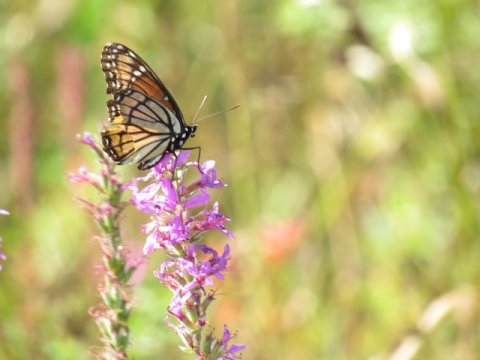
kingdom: Animalia
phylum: Arthropoda
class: Insecta
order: Lepidoptera
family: Nymphalidae
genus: Limenitis
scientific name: Limenitis archippus
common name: Viceroy
